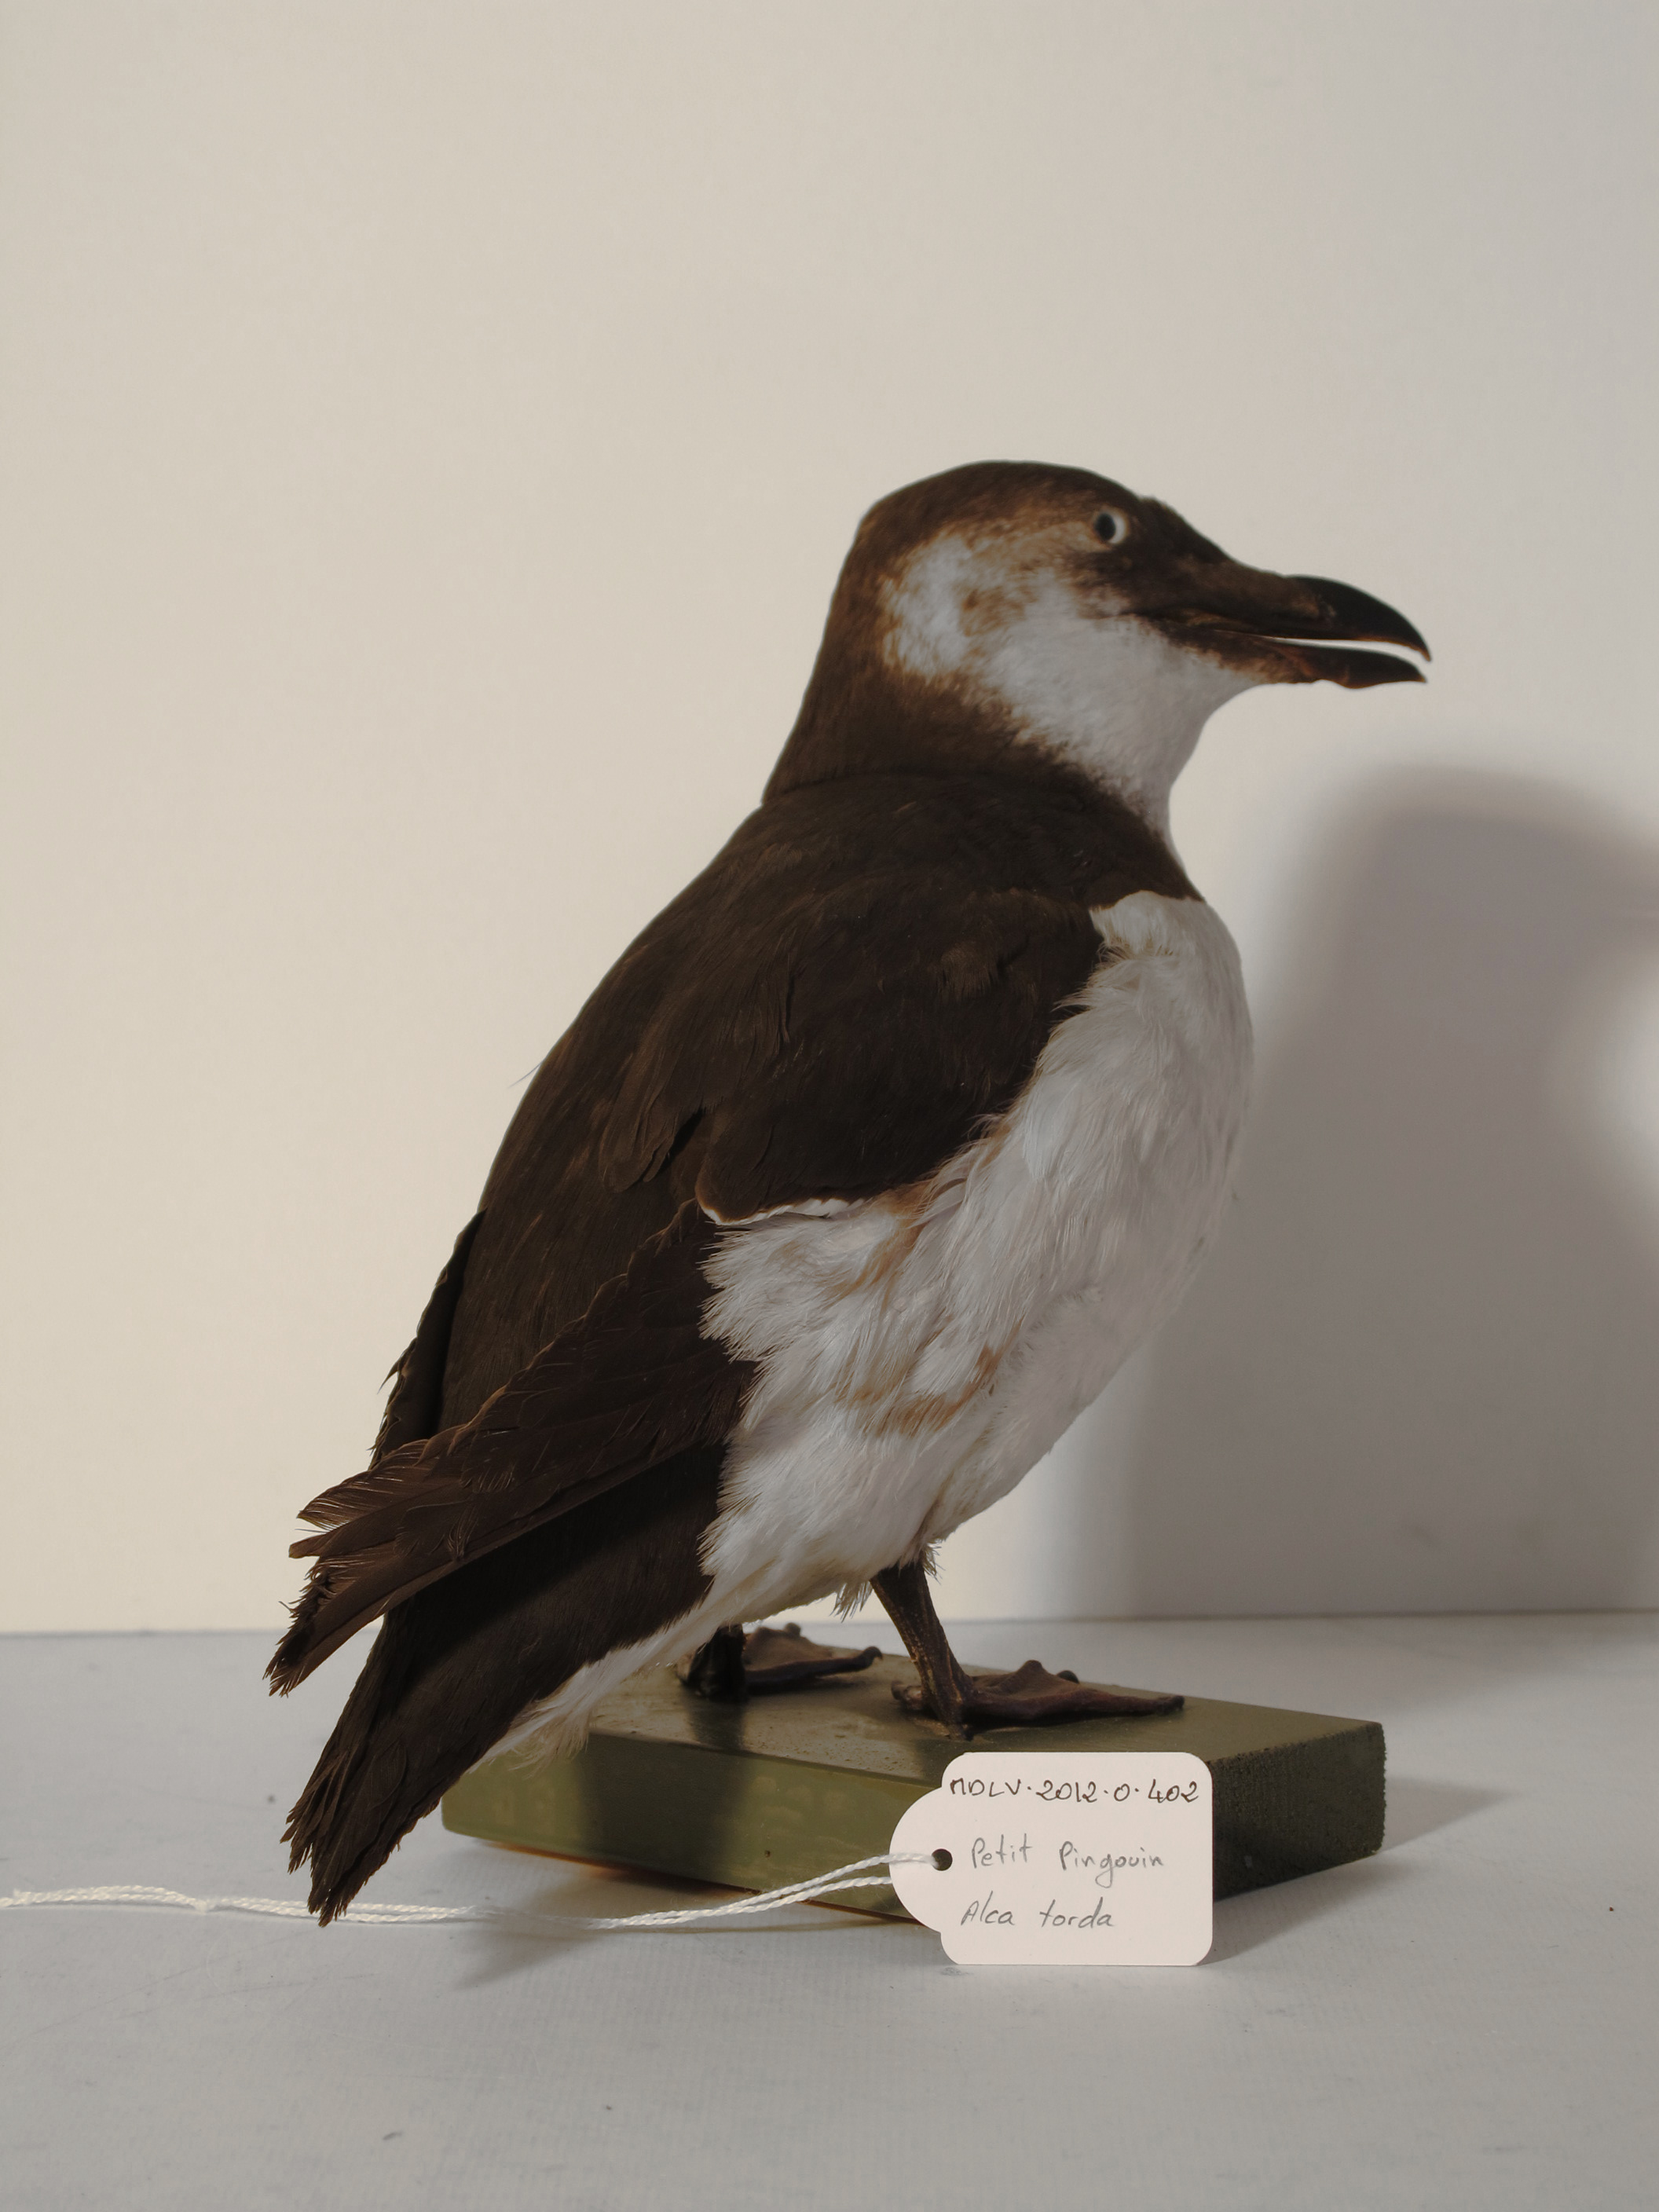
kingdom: Animalia
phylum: Chordata
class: Aves
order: Charadriiformes
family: Alcidae
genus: Alca
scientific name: Alca torda
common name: Razorbill
